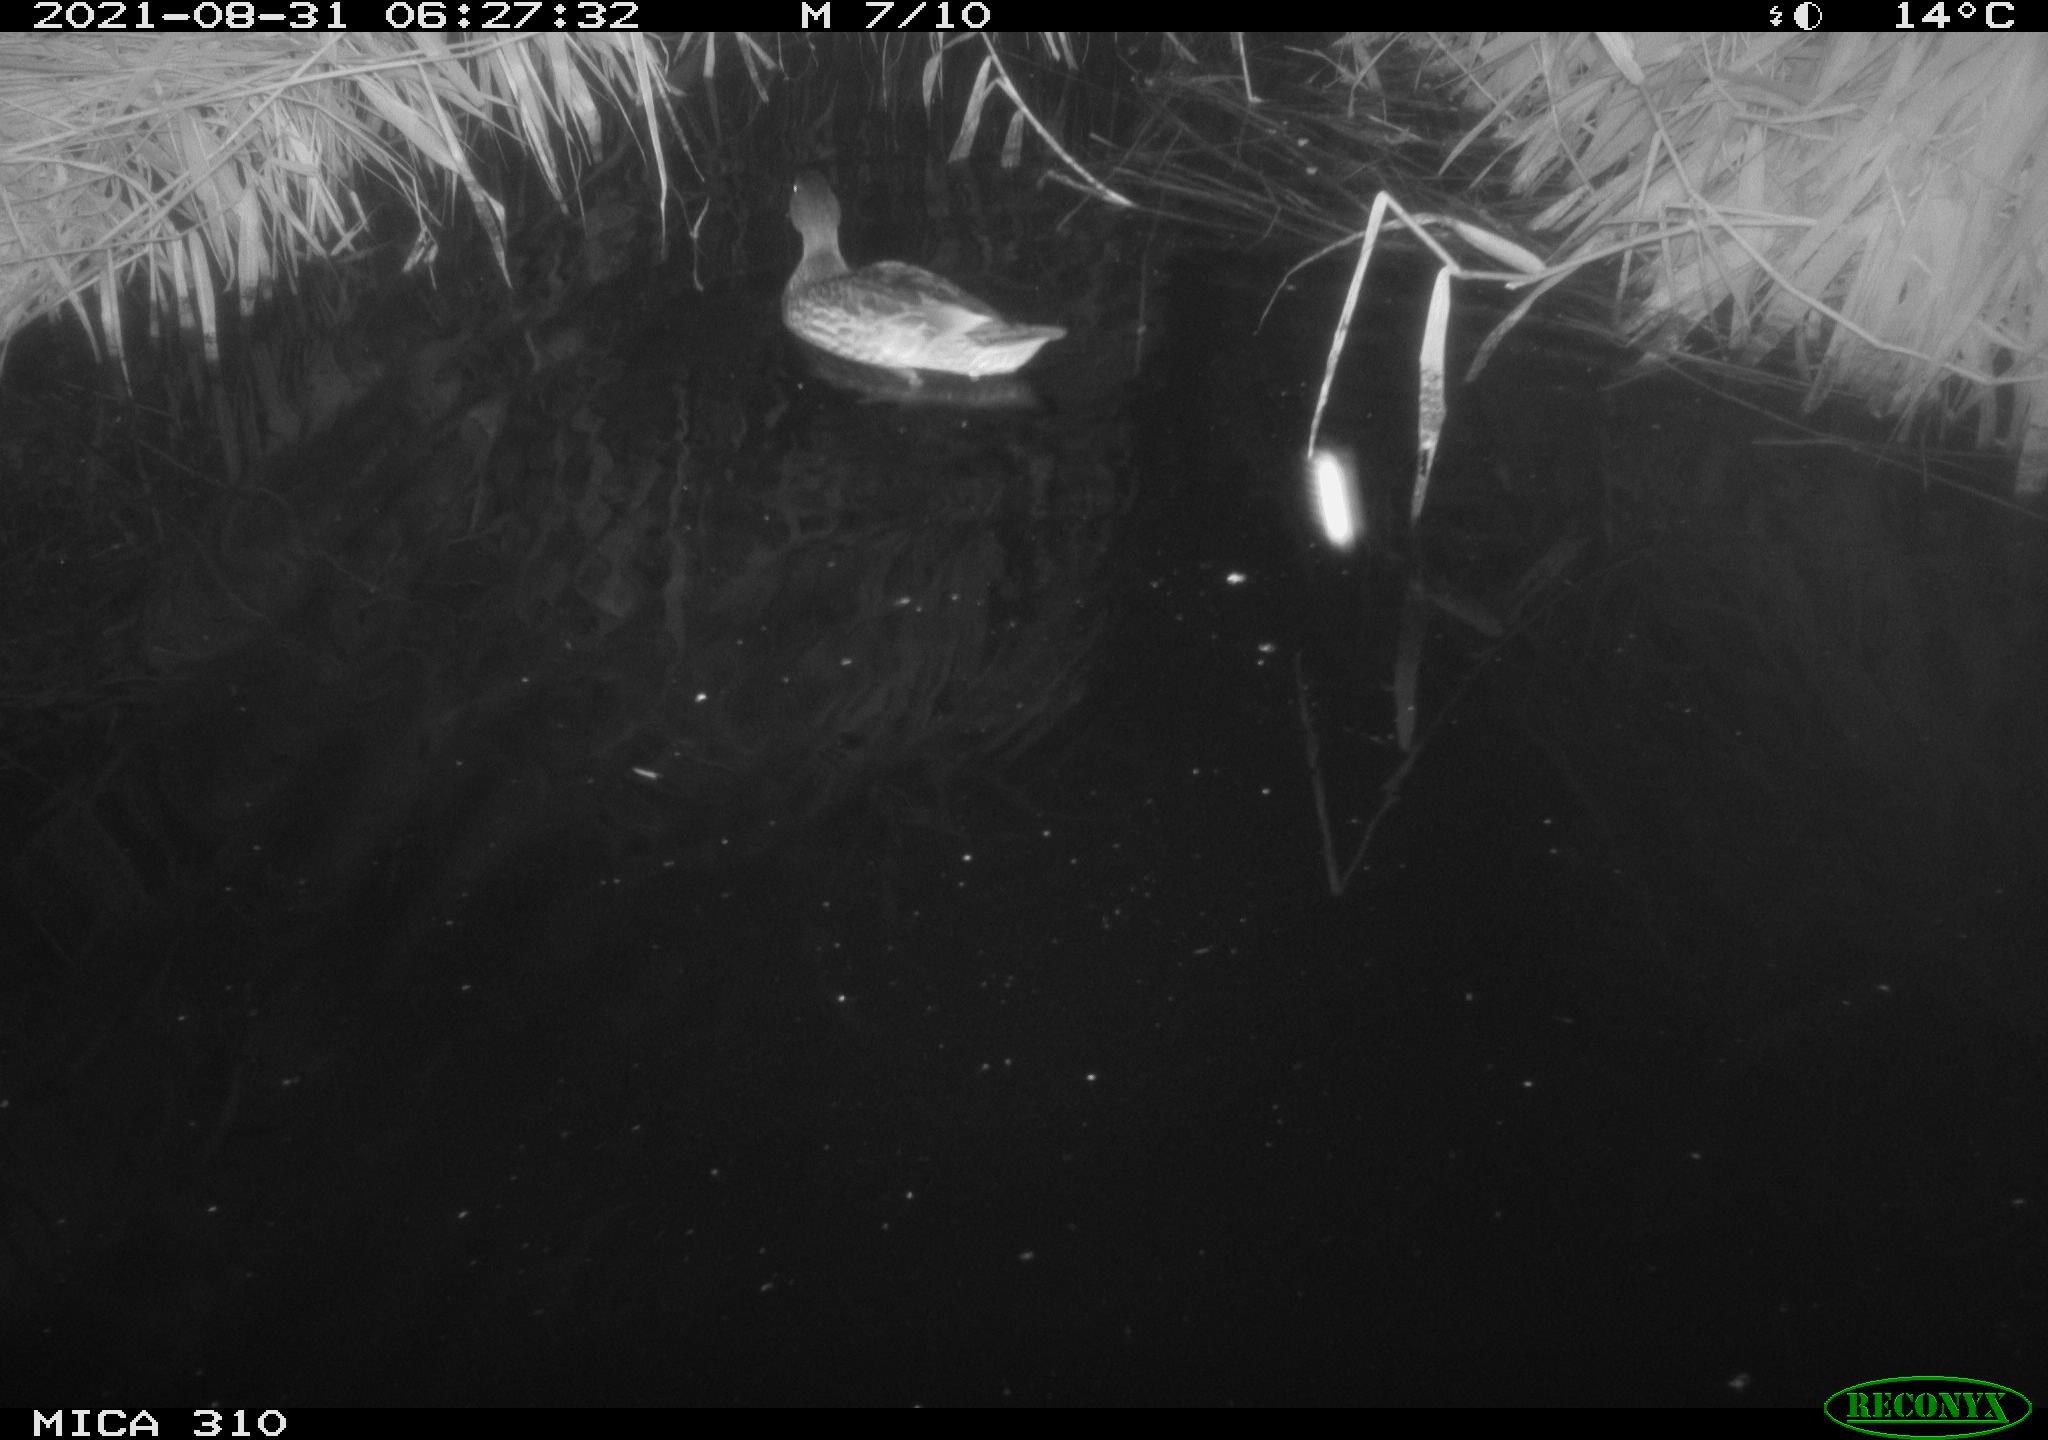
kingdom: Animalia
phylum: Chordata
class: Aves
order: Anseriformes
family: Anatidae
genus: Mareca
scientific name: Mareca strepera
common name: Gadwall
